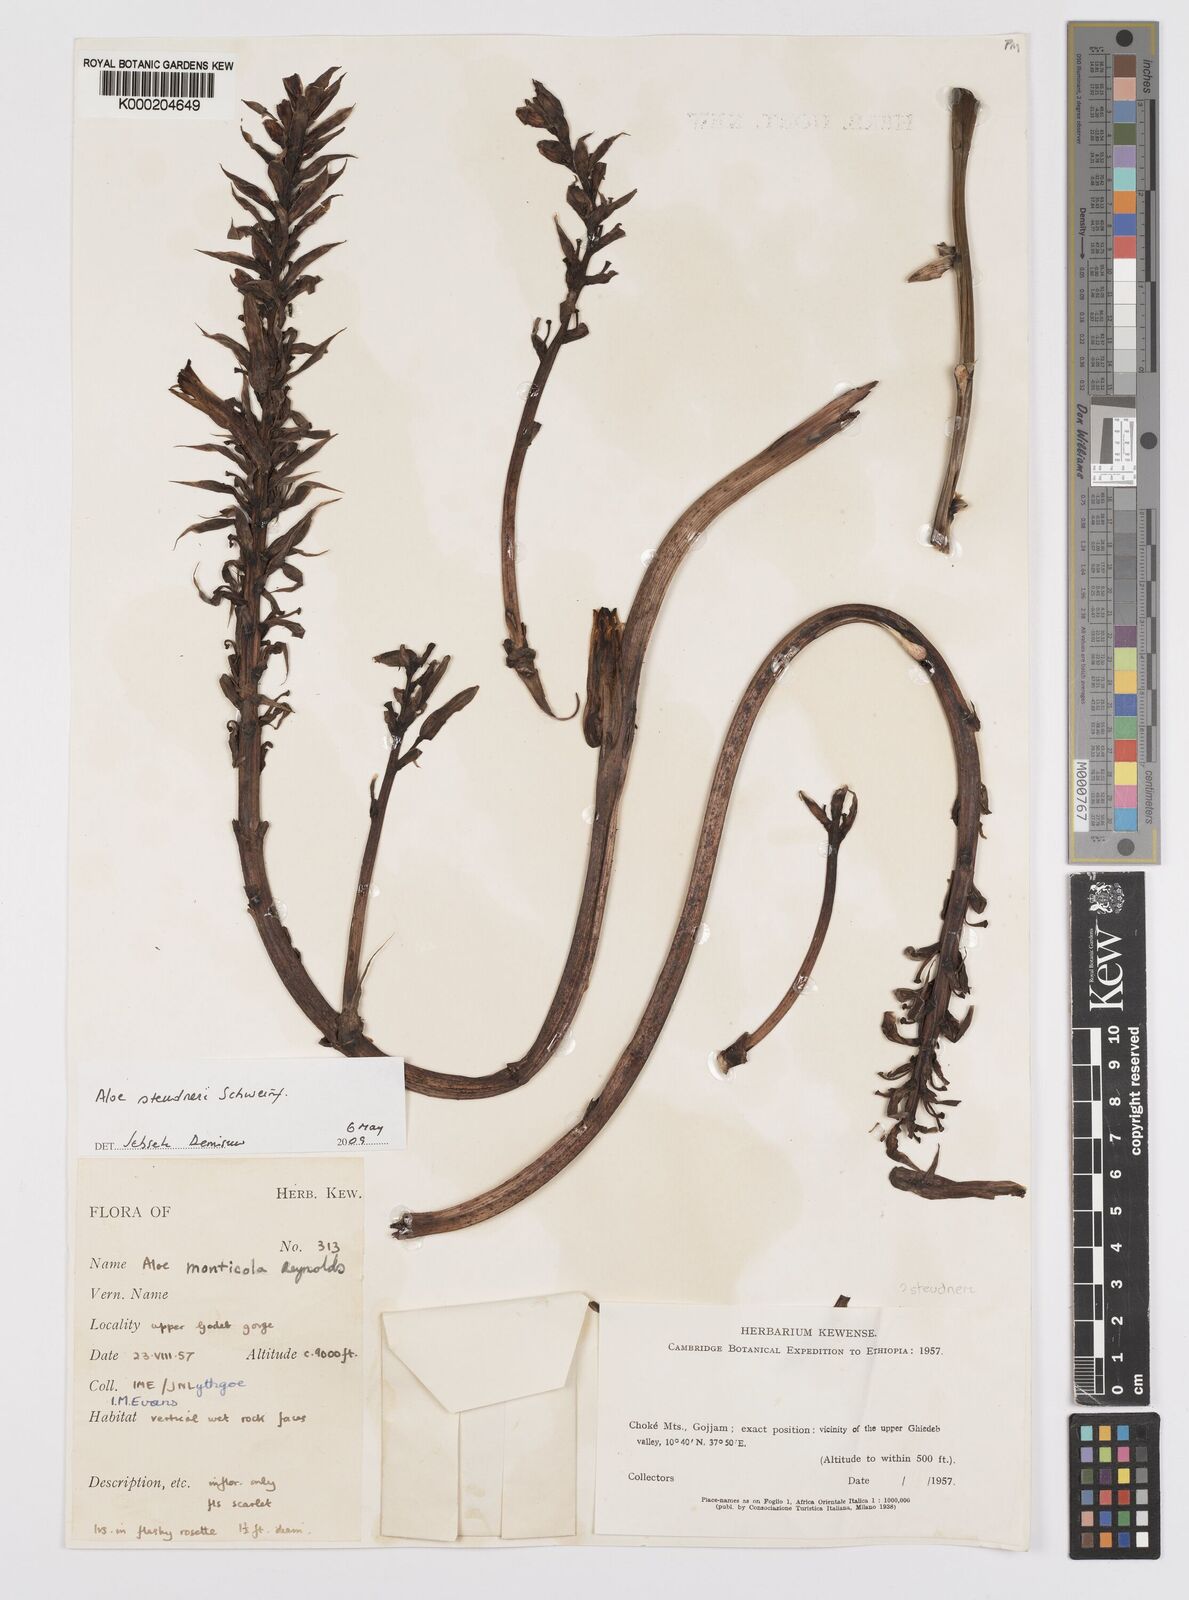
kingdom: Plantae
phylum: Tracheophyta
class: Liliopsida
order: Asparagales
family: Asphodelaceae
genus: Aloe
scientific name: Aloe steudneri
